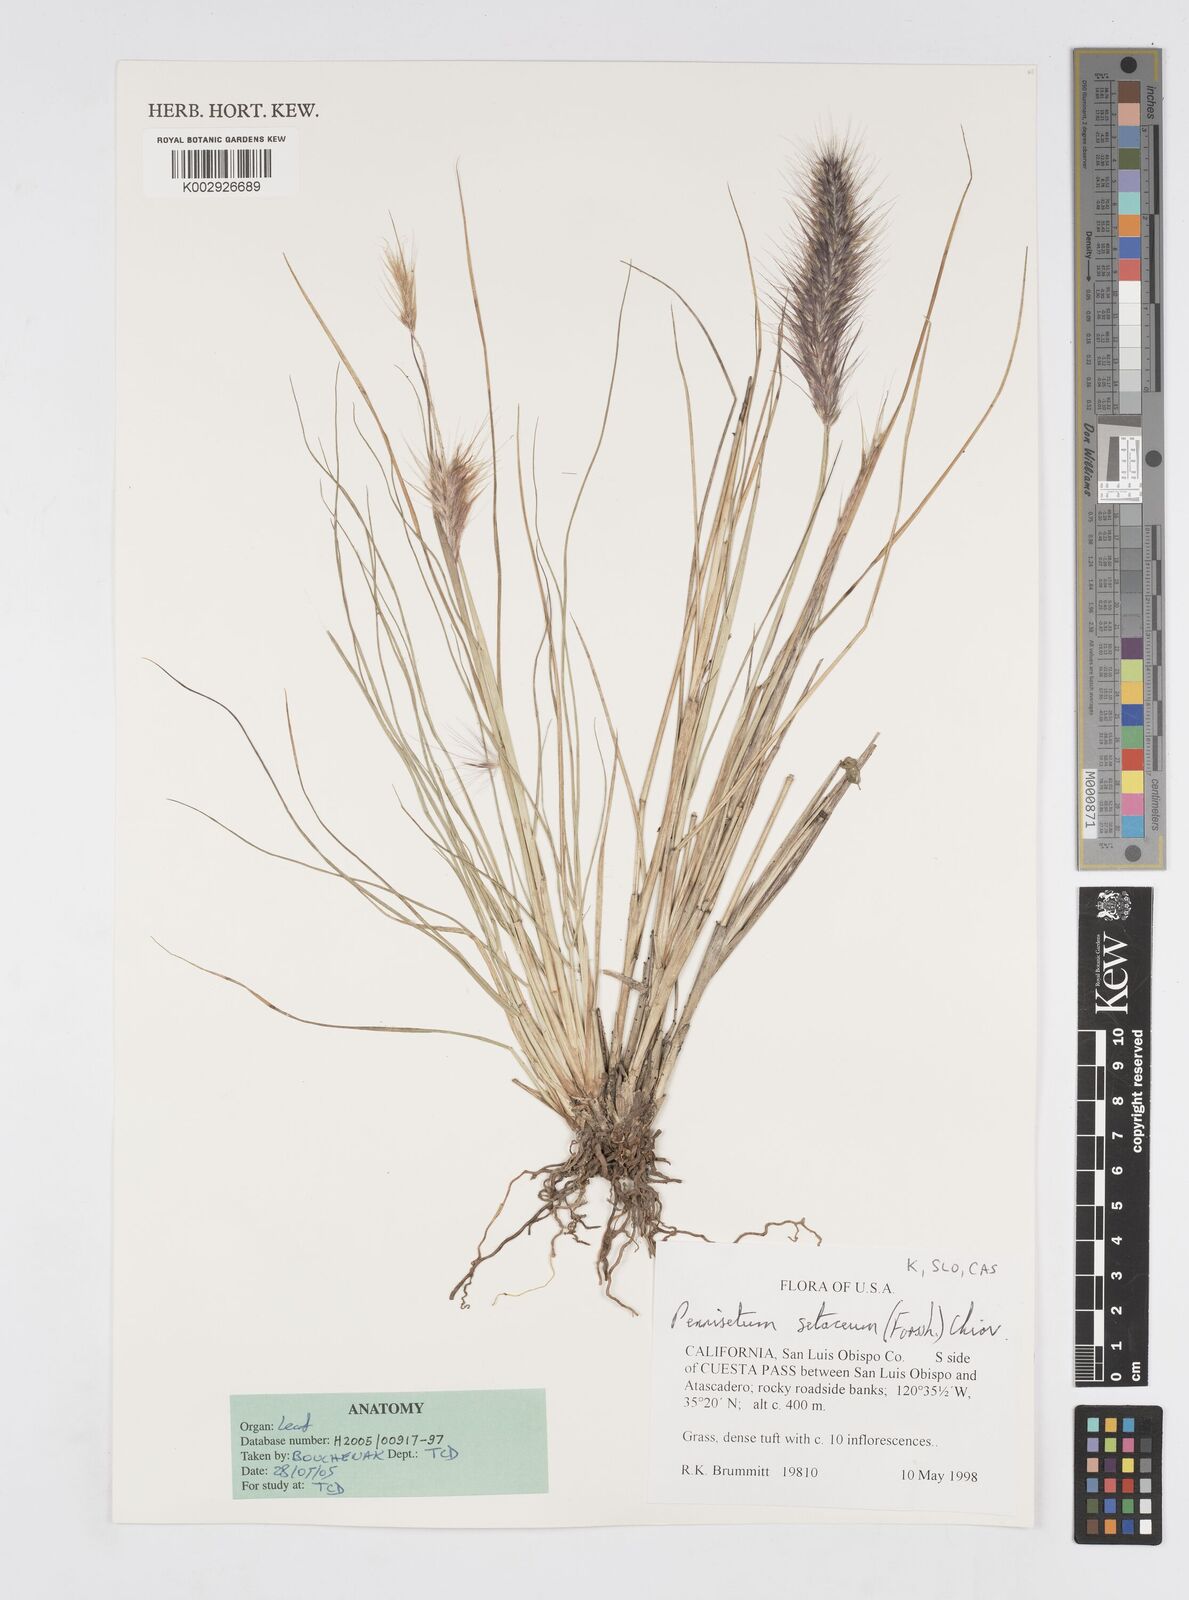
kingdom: Plantae
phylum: Tracheophyta
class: Liliopsida
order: Poales
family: Poaceae
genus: Cenchrus
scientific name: Cenchrus setaceus
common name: Crimson fountaingrass
